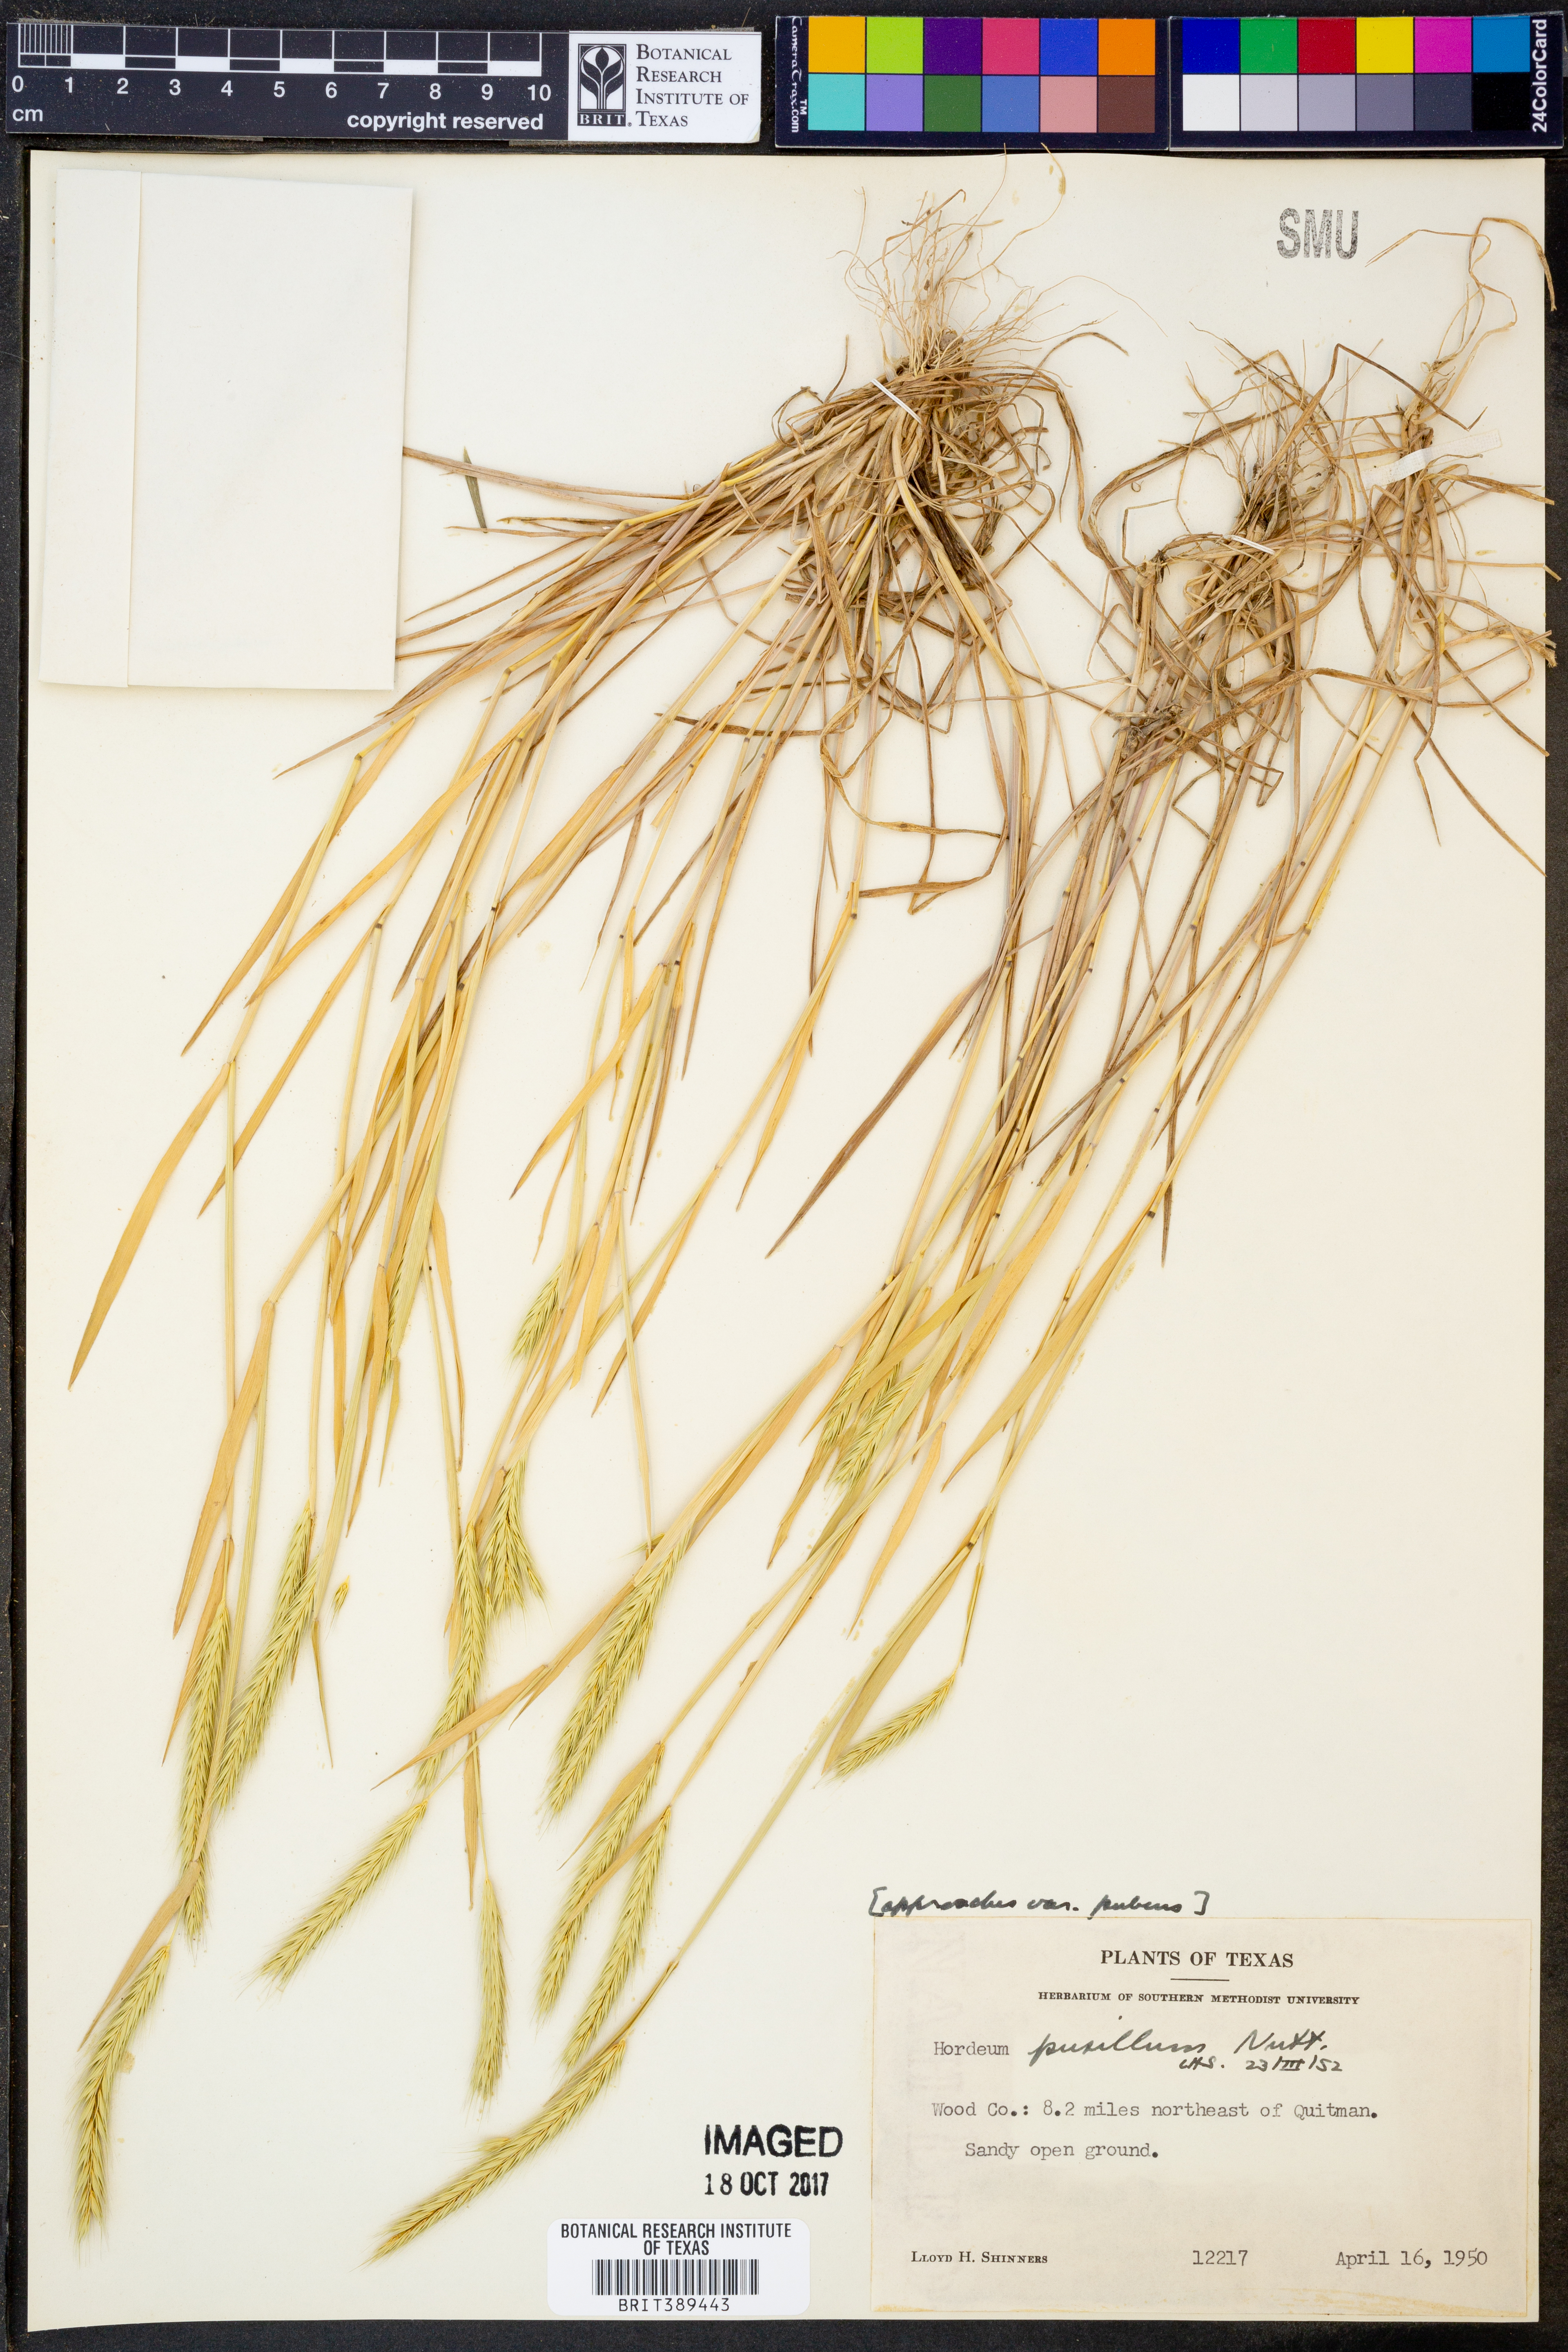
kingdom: Plantae
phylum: Tracheophyta
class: Liliopsida
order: Poales
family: Poaceae
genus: Hordeum
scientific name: Hordeum pusillum
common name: Little barley
